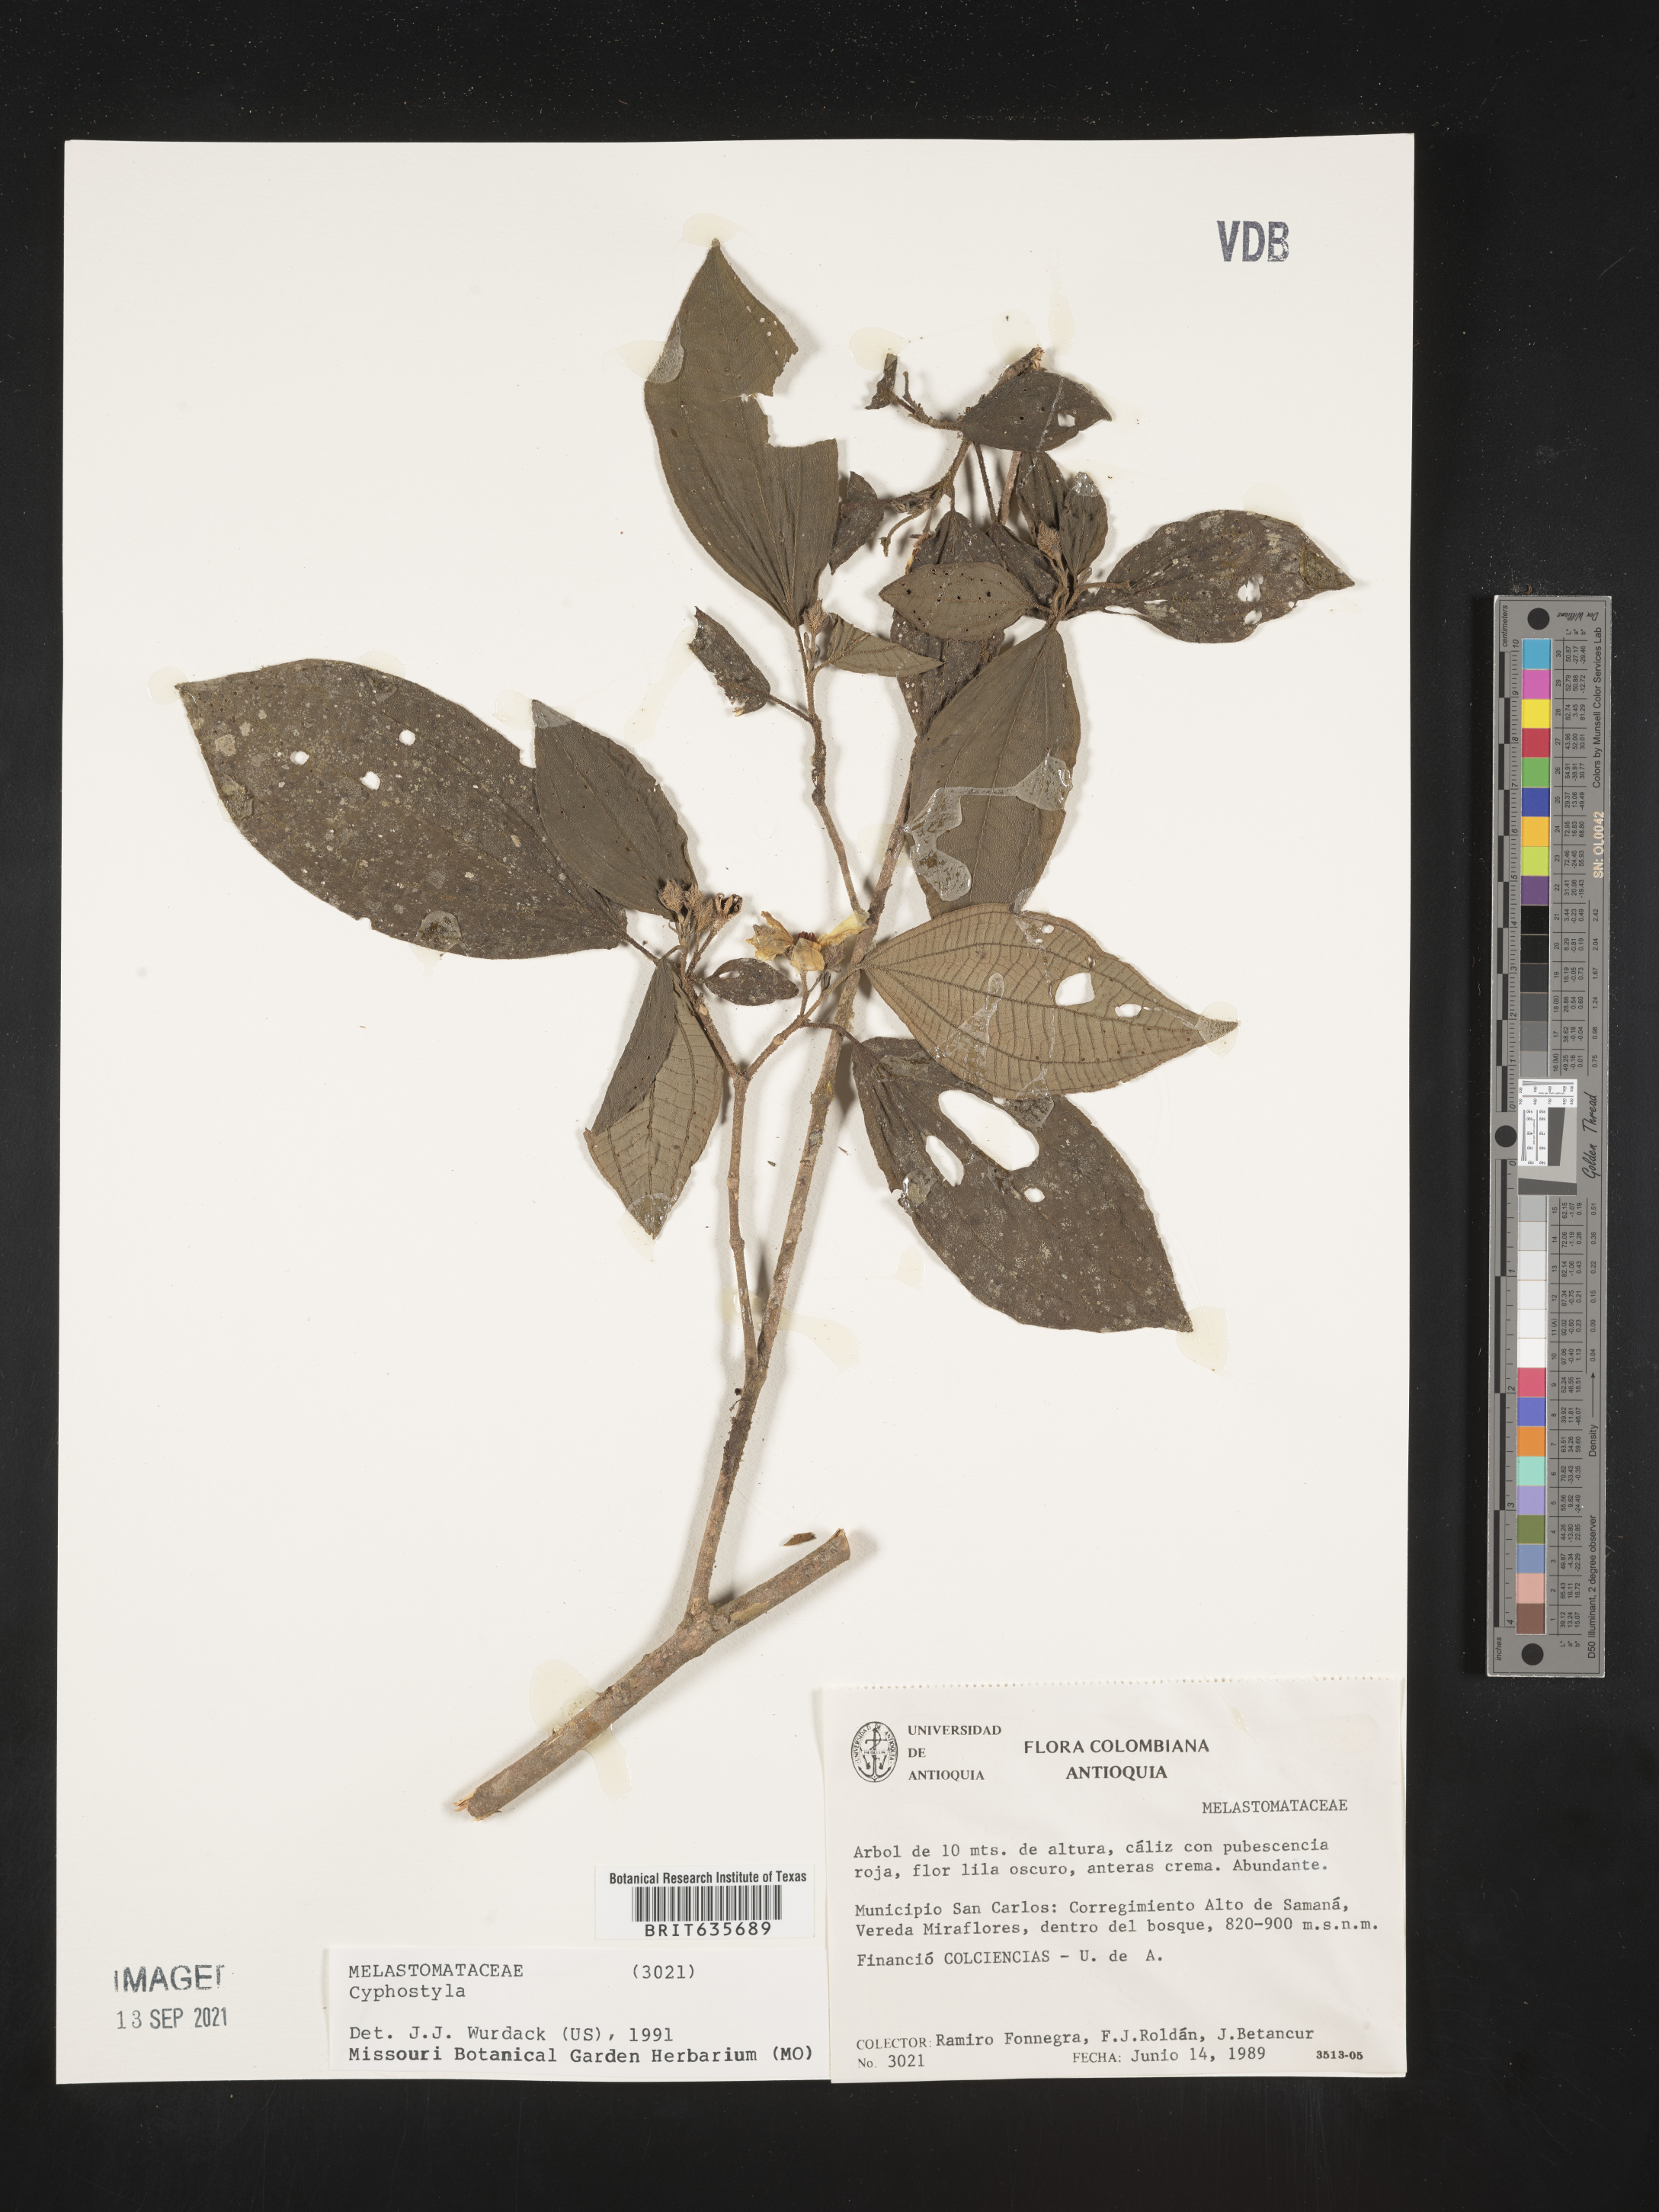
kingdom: Plantae
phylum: Tracheophyta
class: Magnoliopsida
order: Myrtales
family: Melastomataceae
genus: Allomaieta
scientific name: Allomaieta
